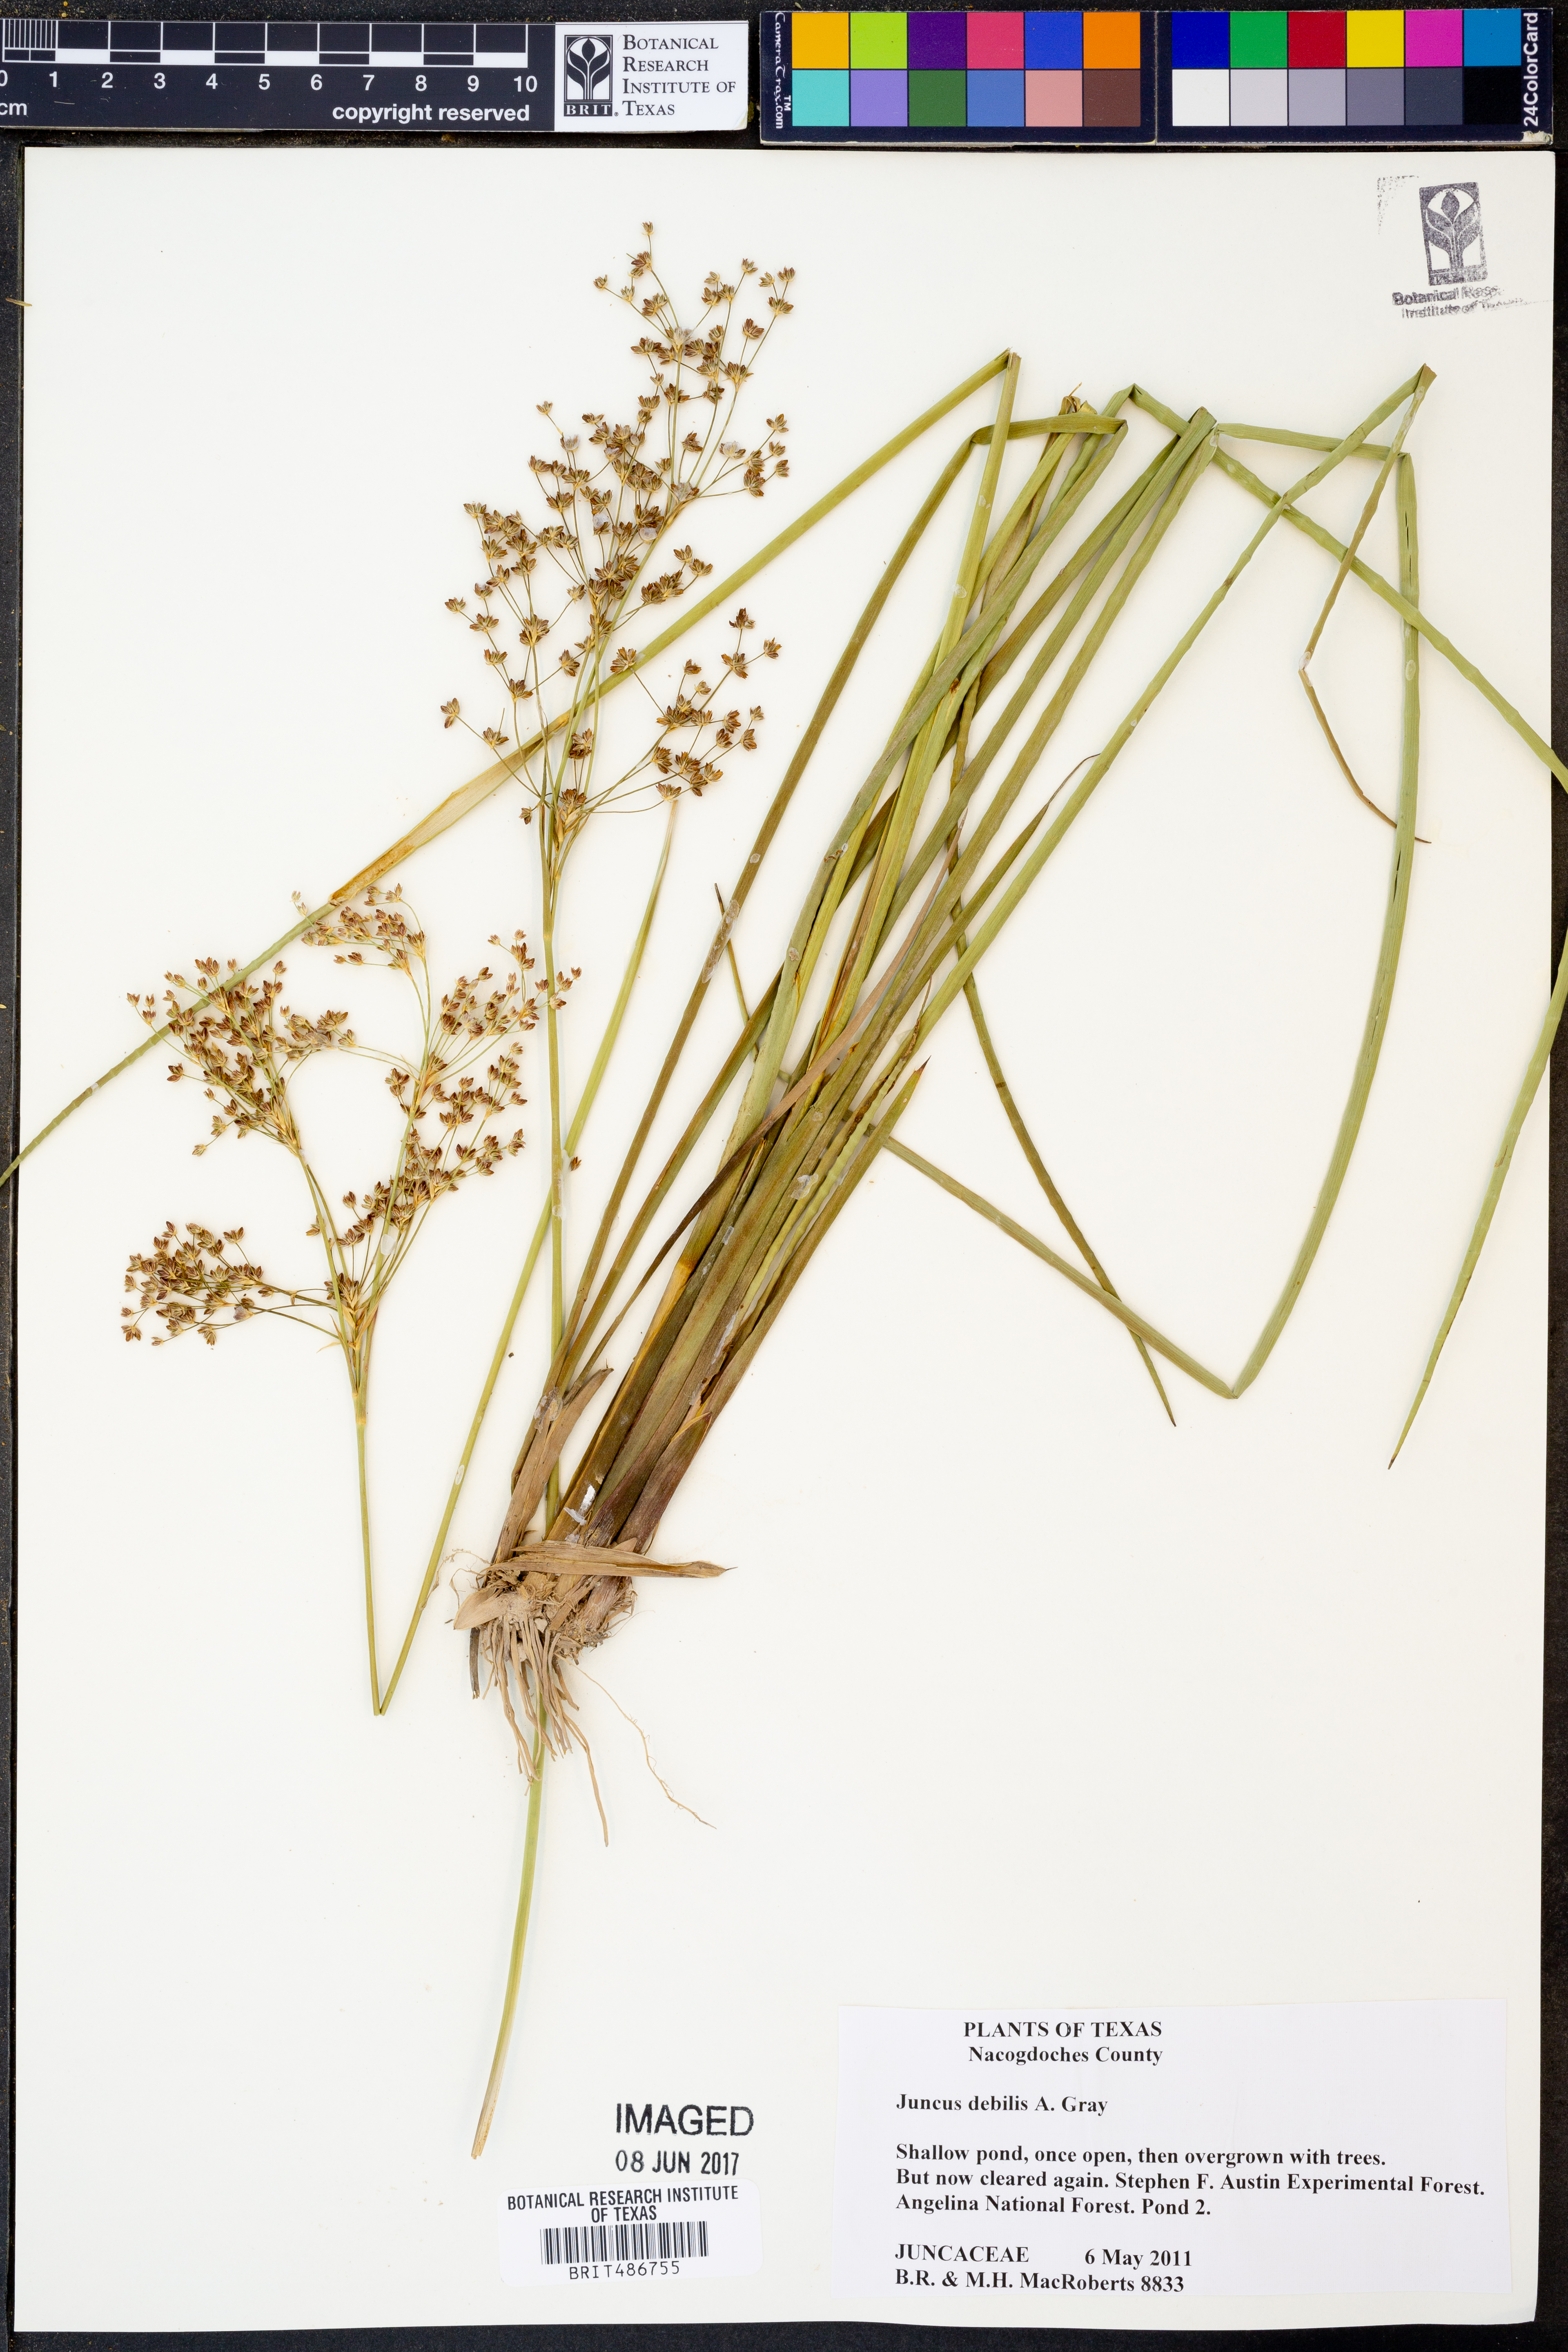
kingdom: Plantae
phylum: Tracheophyta
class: Liliopsida
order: Poales
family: Juncaceae
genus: Juncus
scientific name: Juncus debilis
